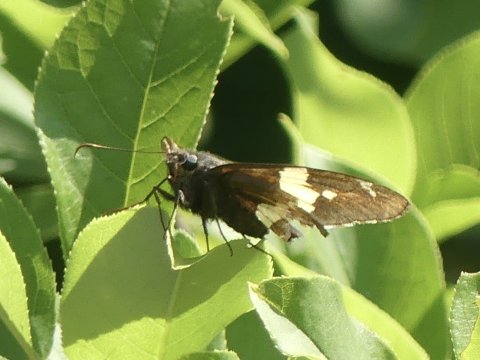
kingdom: Animalia
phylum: Arthropoda
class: Insecta
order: Lepidoptera
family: Hesperiidae
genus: Epargyreus
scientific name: Epargyreus clarus
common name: Silver-spotted Skipper
